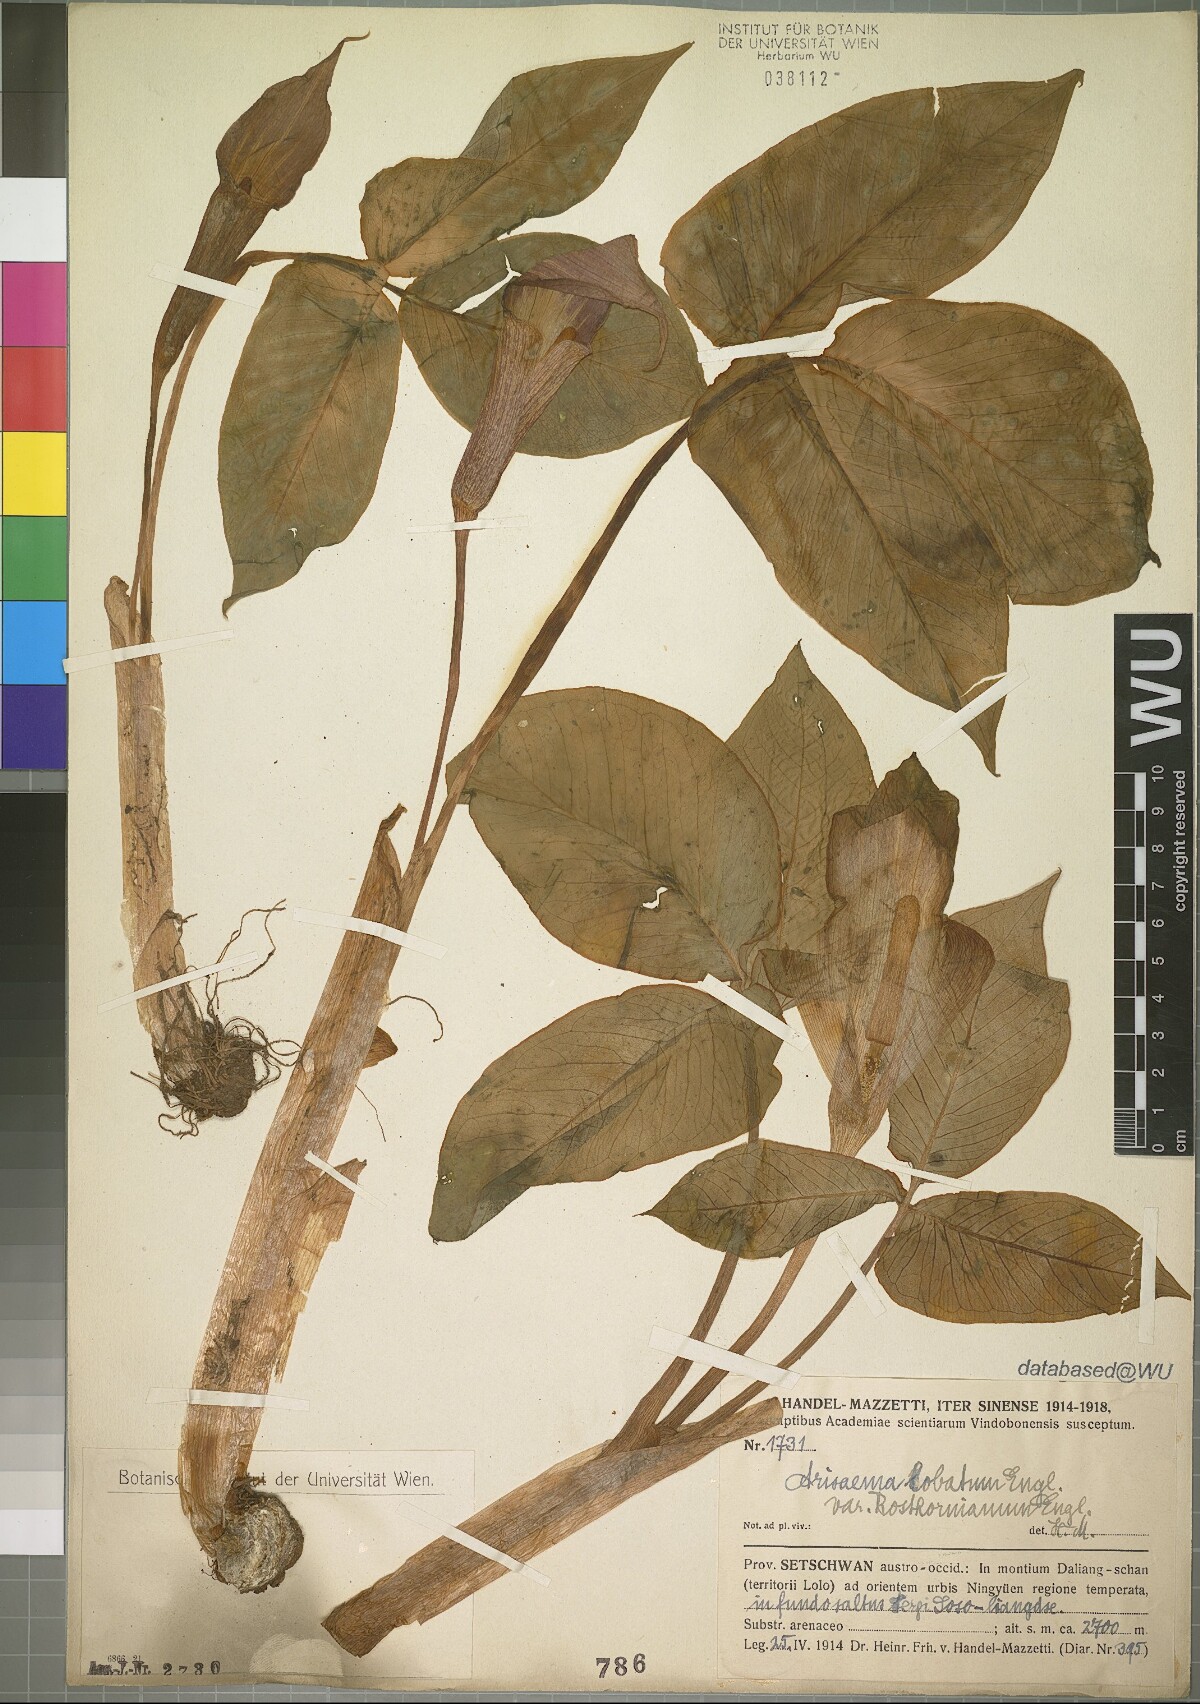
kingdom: Plantae
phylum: Tracheophyta
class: Liliopsida
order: Alismatales
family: Araceae
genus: Arisaema
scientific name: Arisaema lobatum
